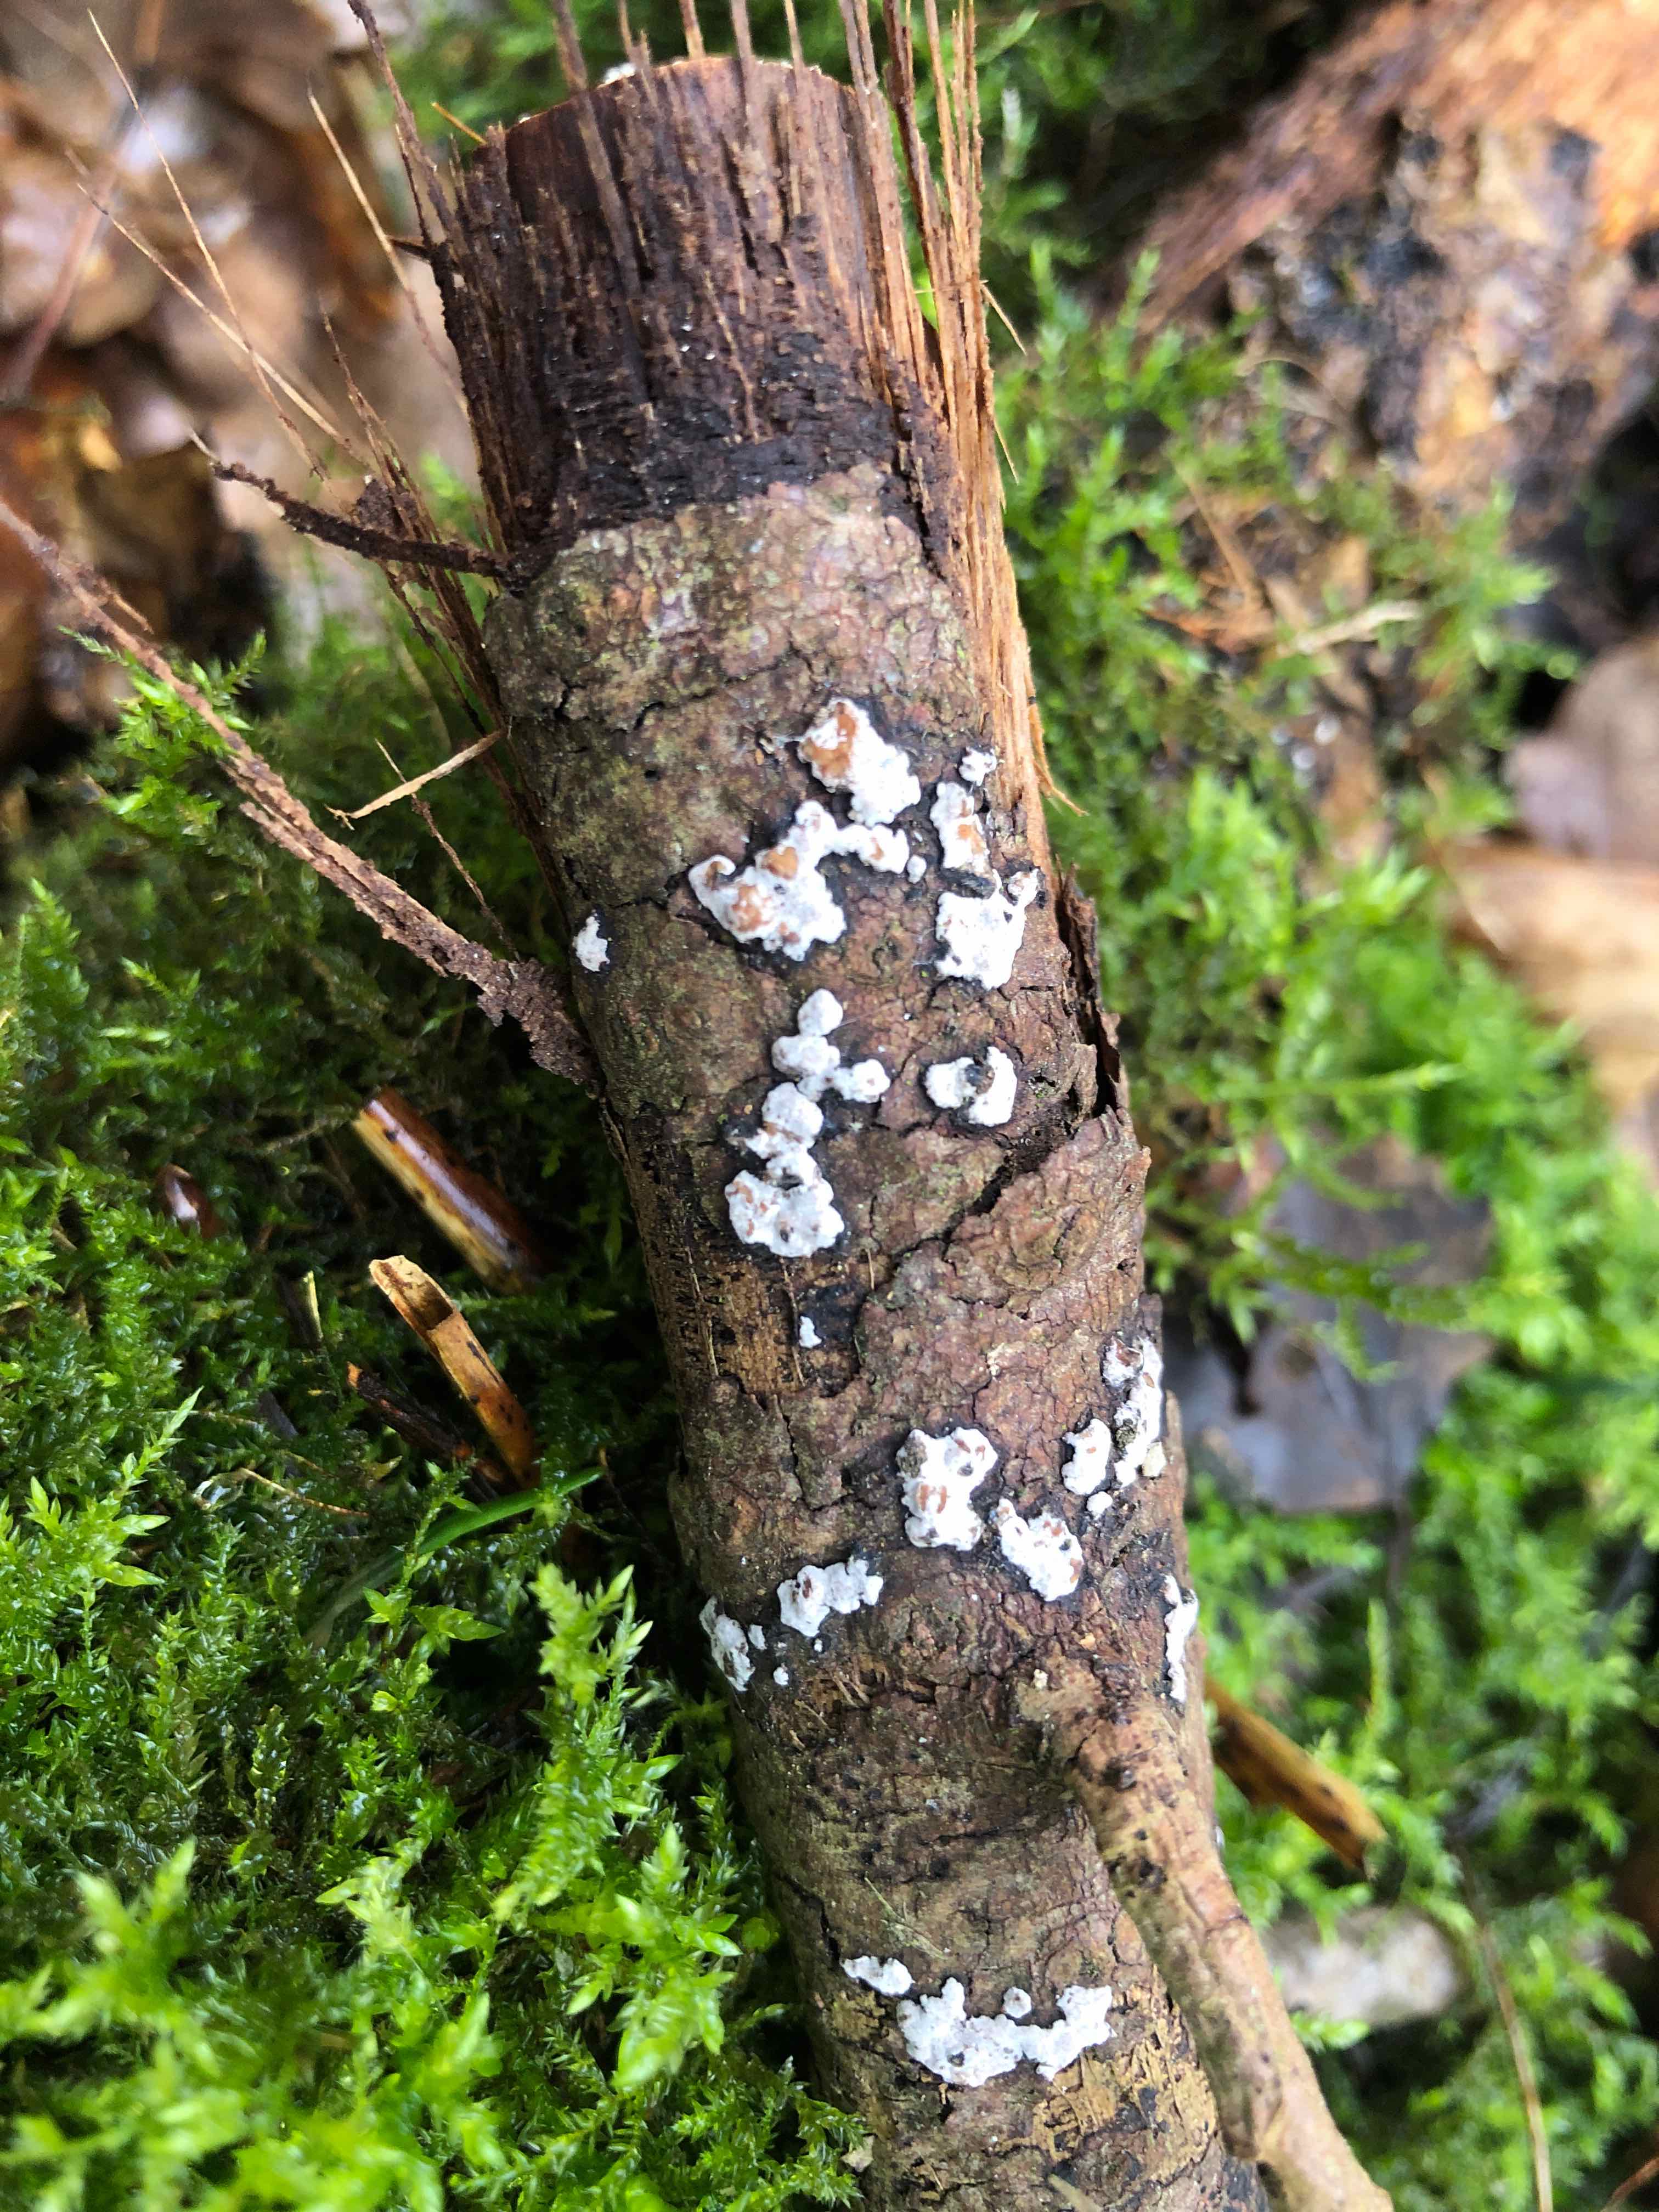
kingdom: Fungi
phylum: Basidiomycota
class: Agaricomycetes
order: Russulales
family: Peniophoraceae
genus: Peniophora
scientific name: Peniophora polygonia
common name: polygon-voksskind
